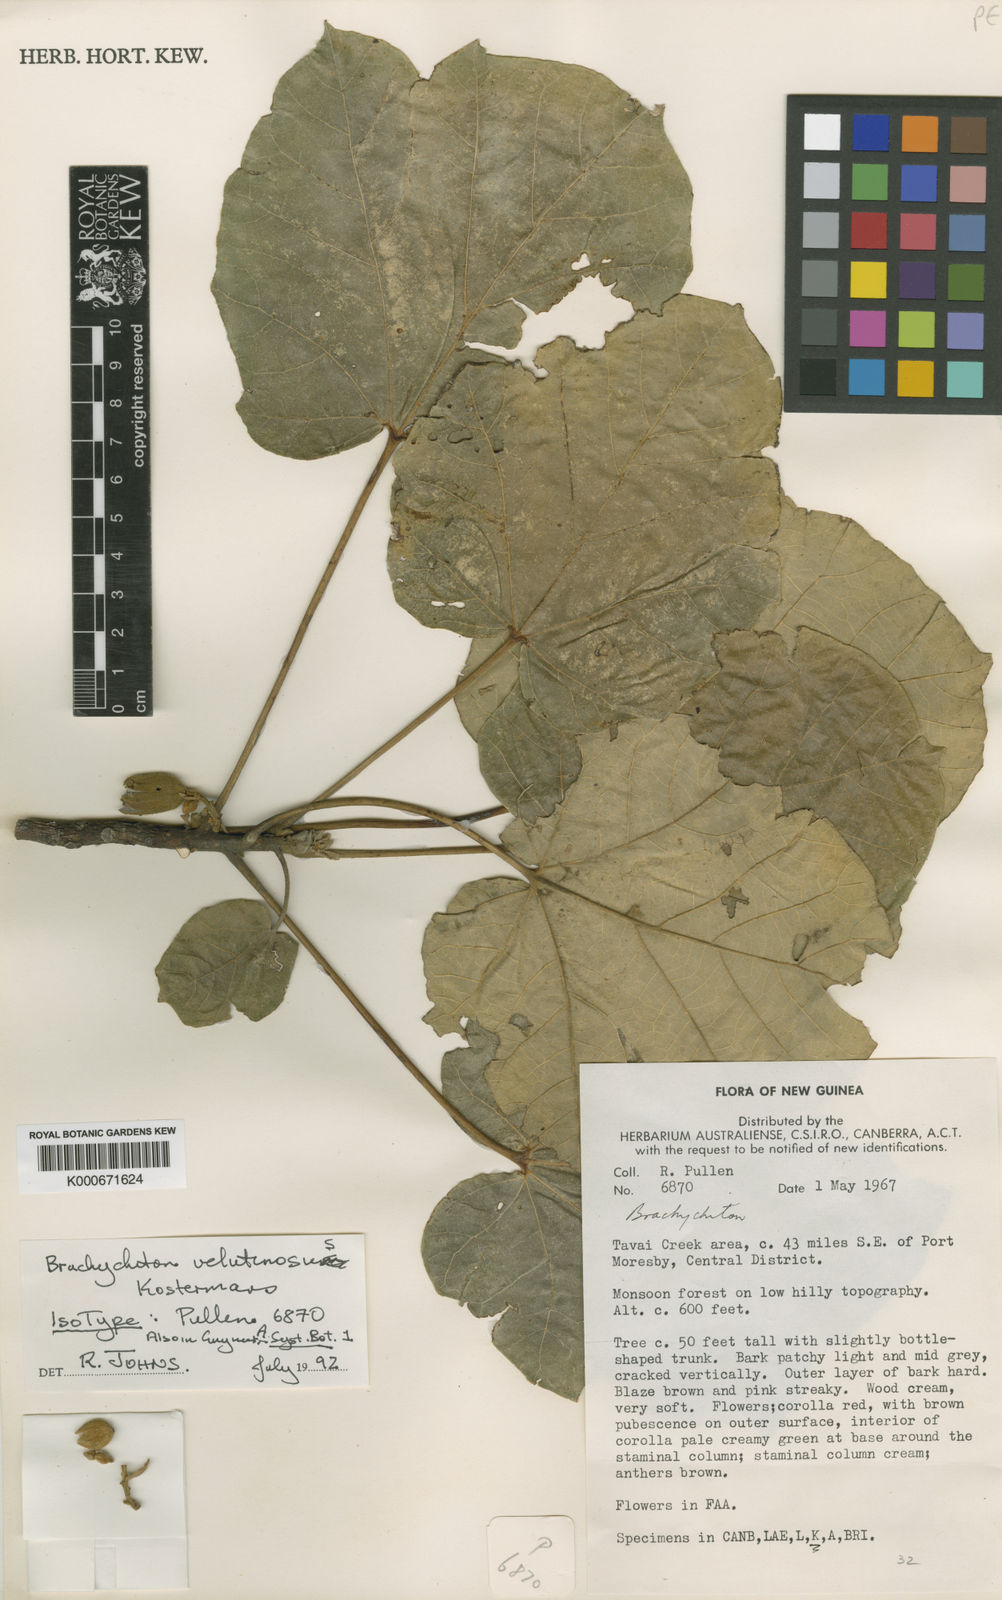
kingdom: Plantae
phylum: Tracheophyta
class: Magnoliopsida
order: Malvales
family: Malvaceae
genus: Brachychiton
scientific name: Brachychiton velutinosus
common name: Brush kurrajong
